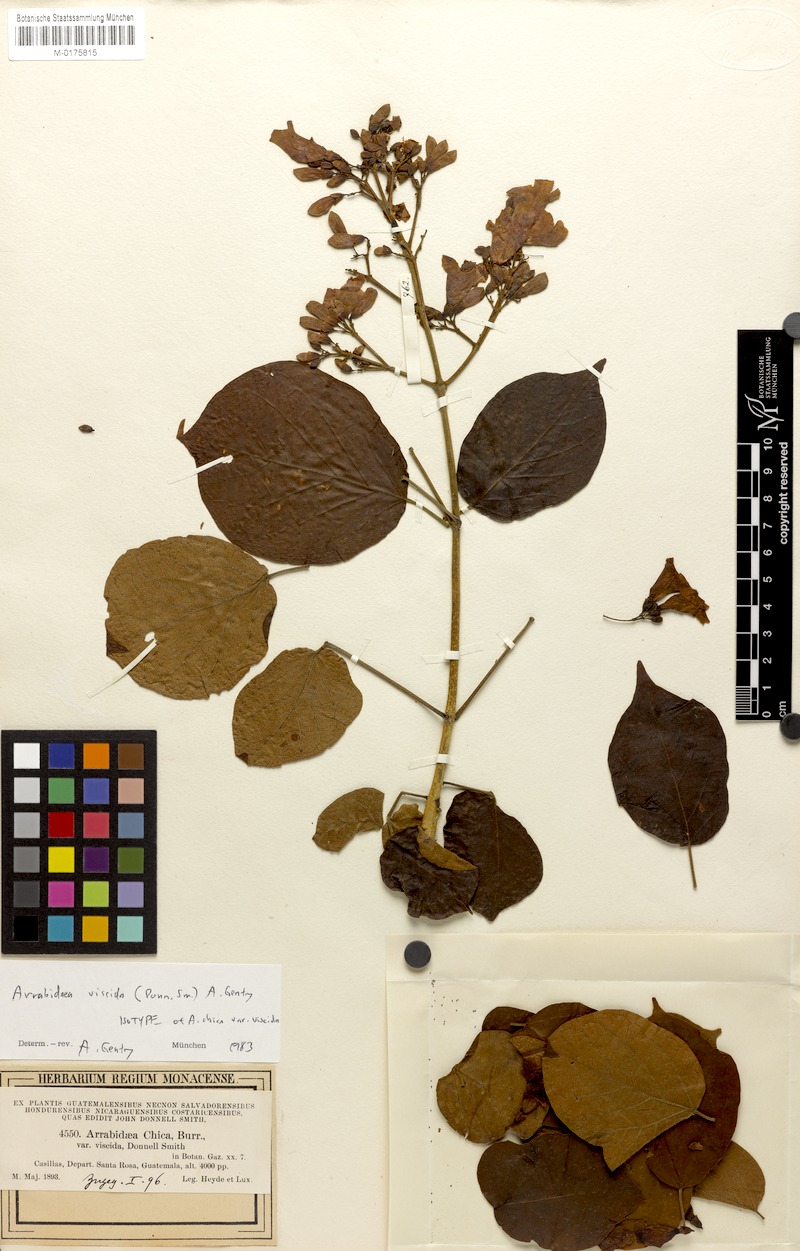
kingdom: Plantae
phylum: Tracheophyta
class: Magnoliopsida
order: Lamiales
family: Bignoniaceae
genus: Fridericia
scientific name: Fridericia viscida
